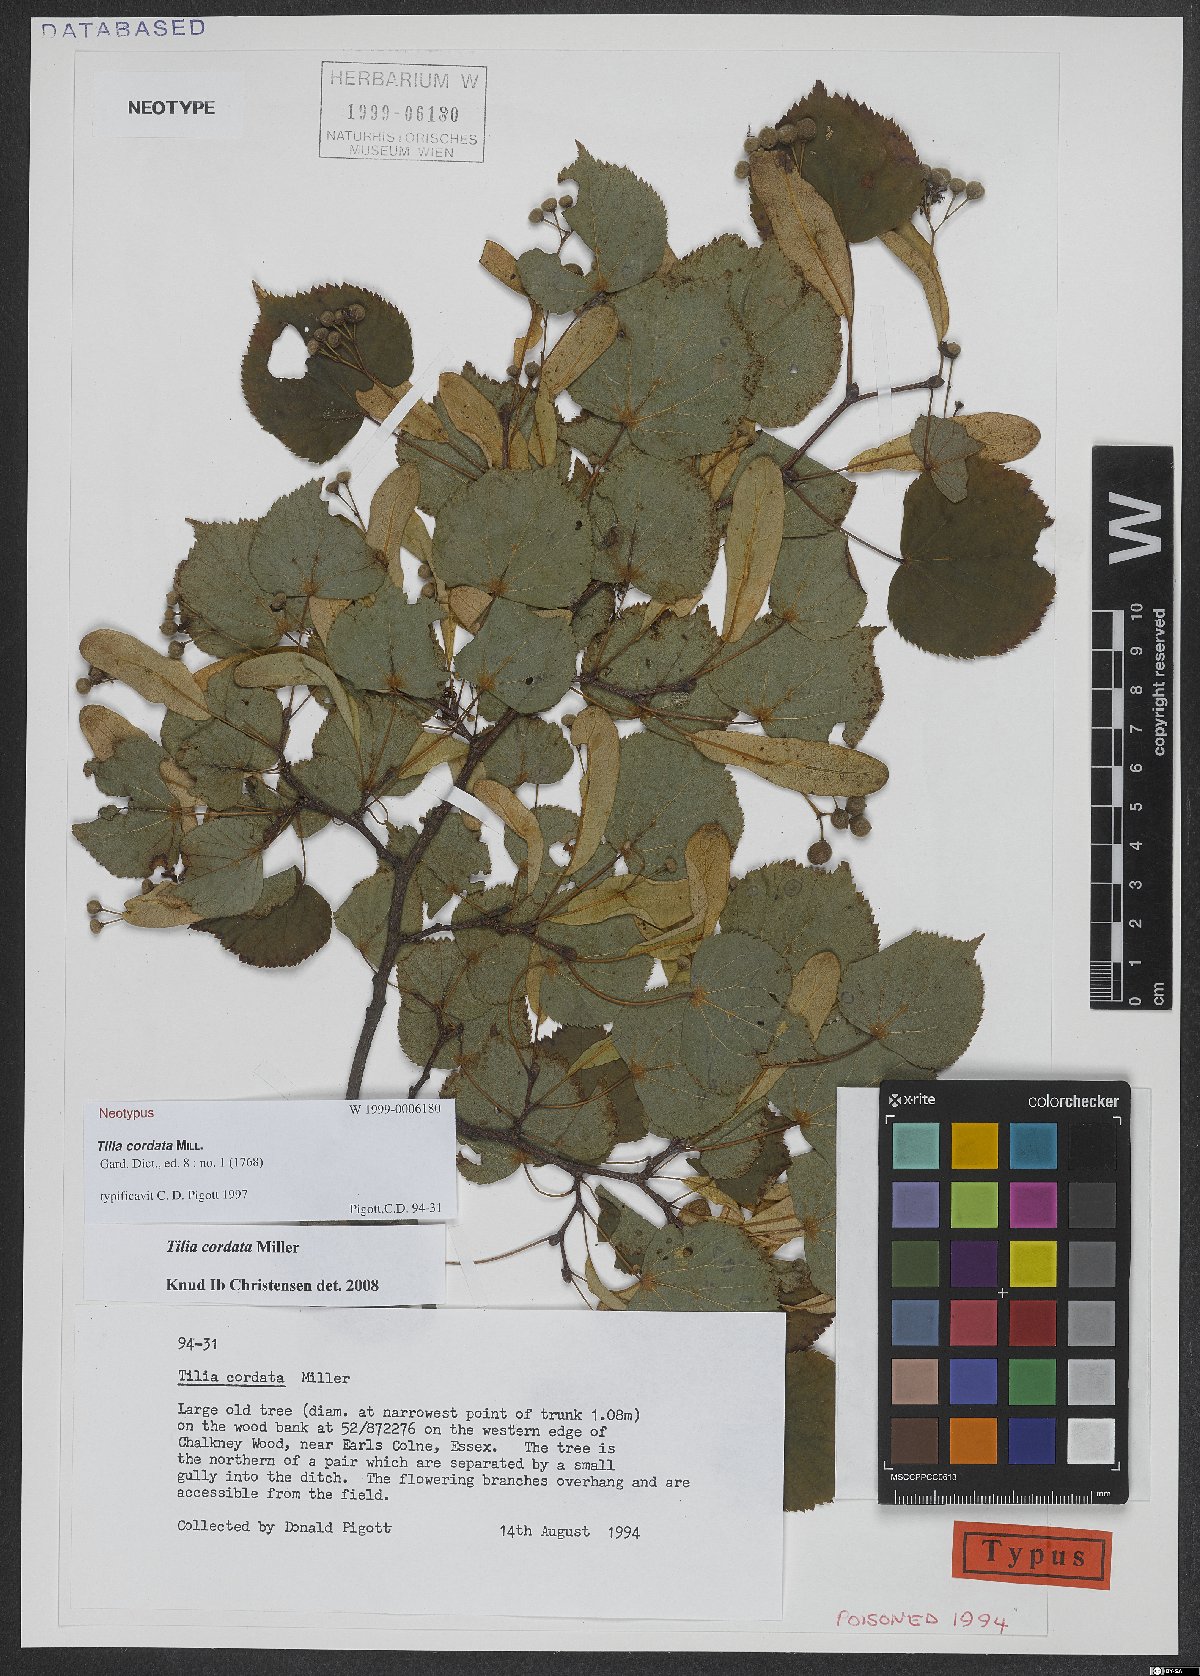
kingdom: Plantae
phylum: Tracheophyta
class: Magnoliopsida
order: Malvales
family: Malvaceae
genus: Tilia
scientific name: Tilia cordata
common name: Small-leaved lime
